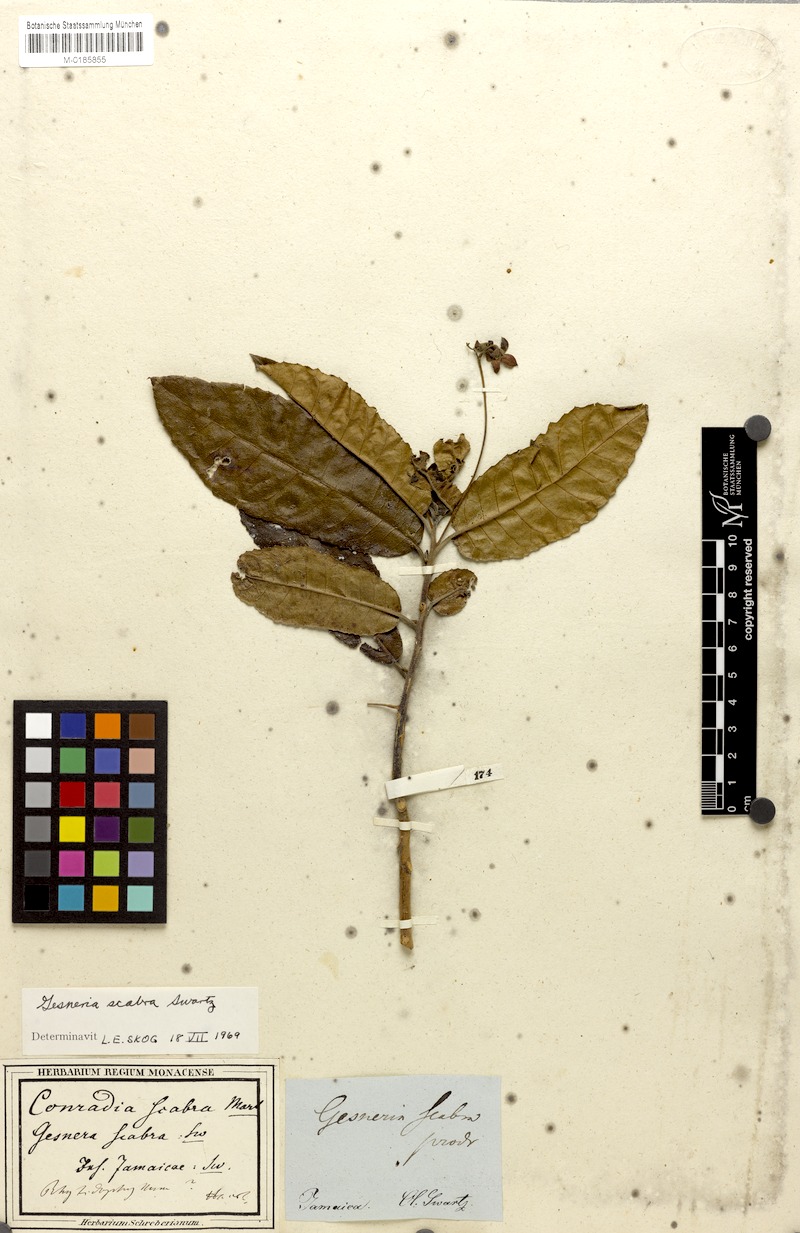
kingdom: Plantae
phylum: Tracheophyta
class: Magnoliopsida
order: Lamiales
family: Gesneriaceae
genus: Gesneria
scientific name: Gesneria scabra
